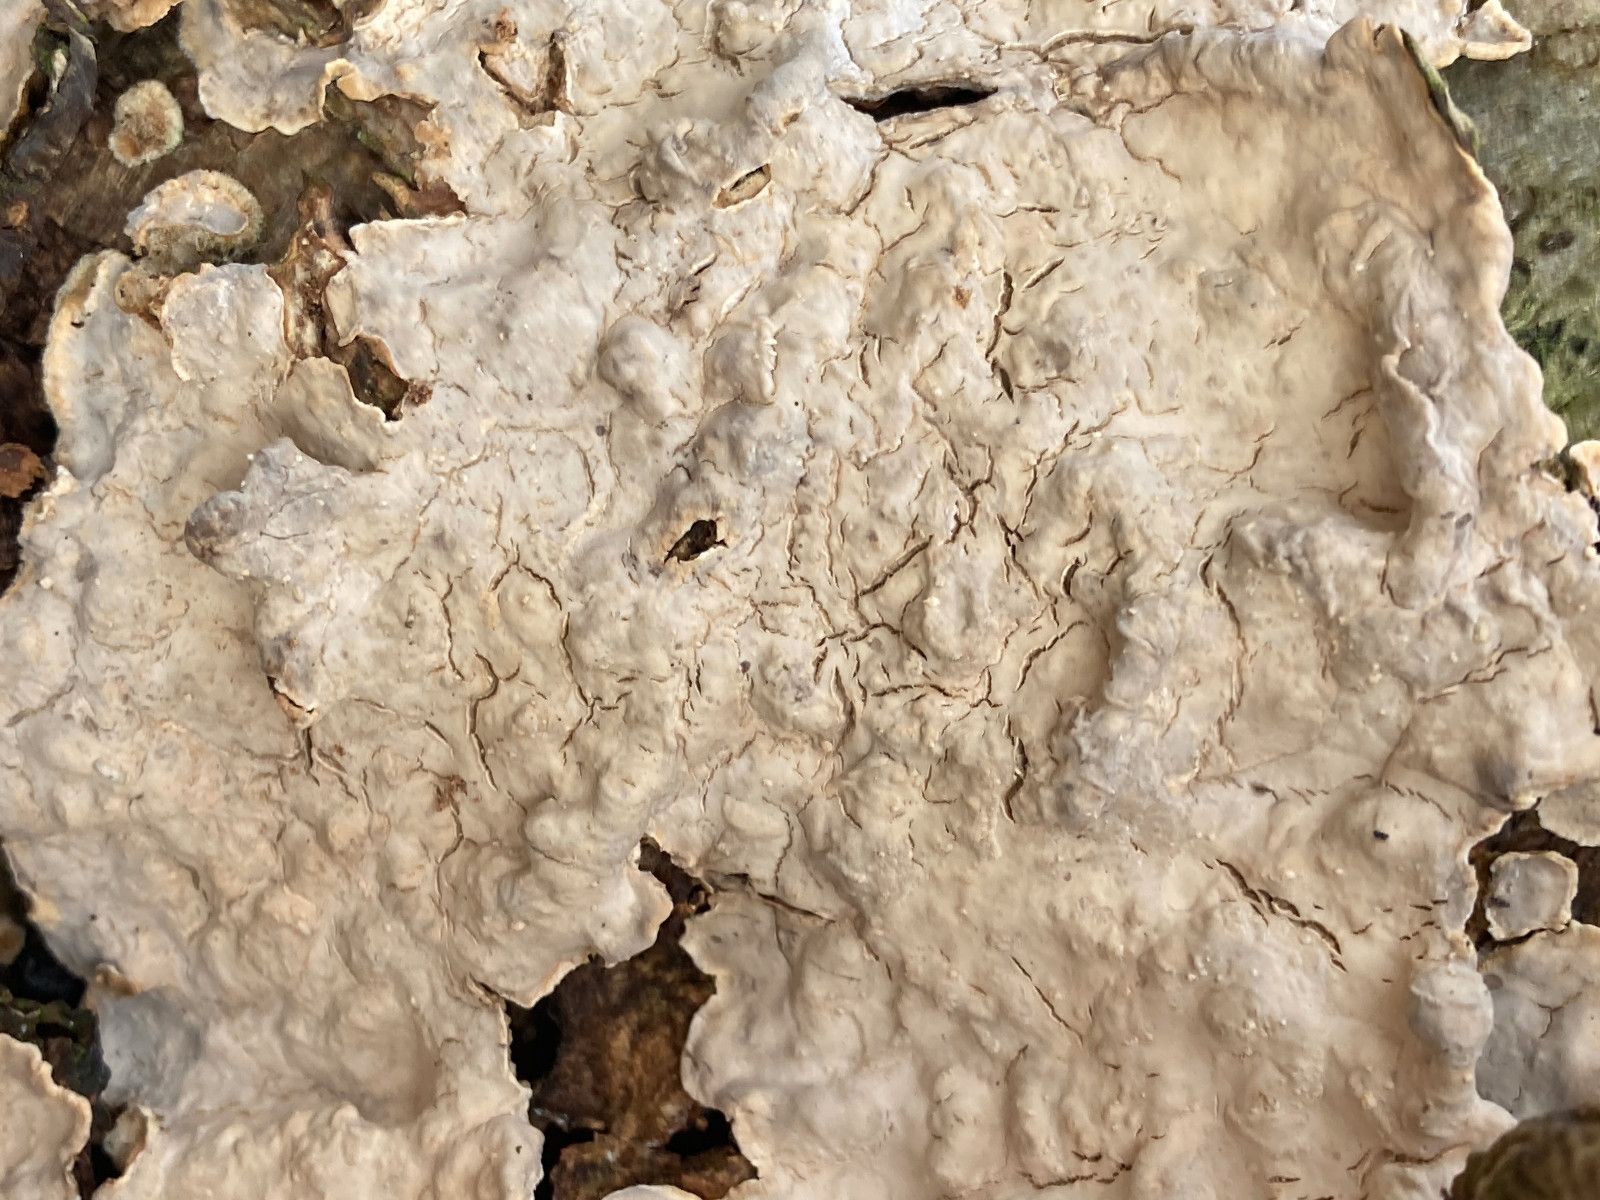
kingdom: Fungi
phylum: Basidiomycota
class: Agaricomycetes
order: Russulales
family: Stereaceae
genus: Stereum
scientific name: Stereum rugosum
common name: rynket lædersvamp
